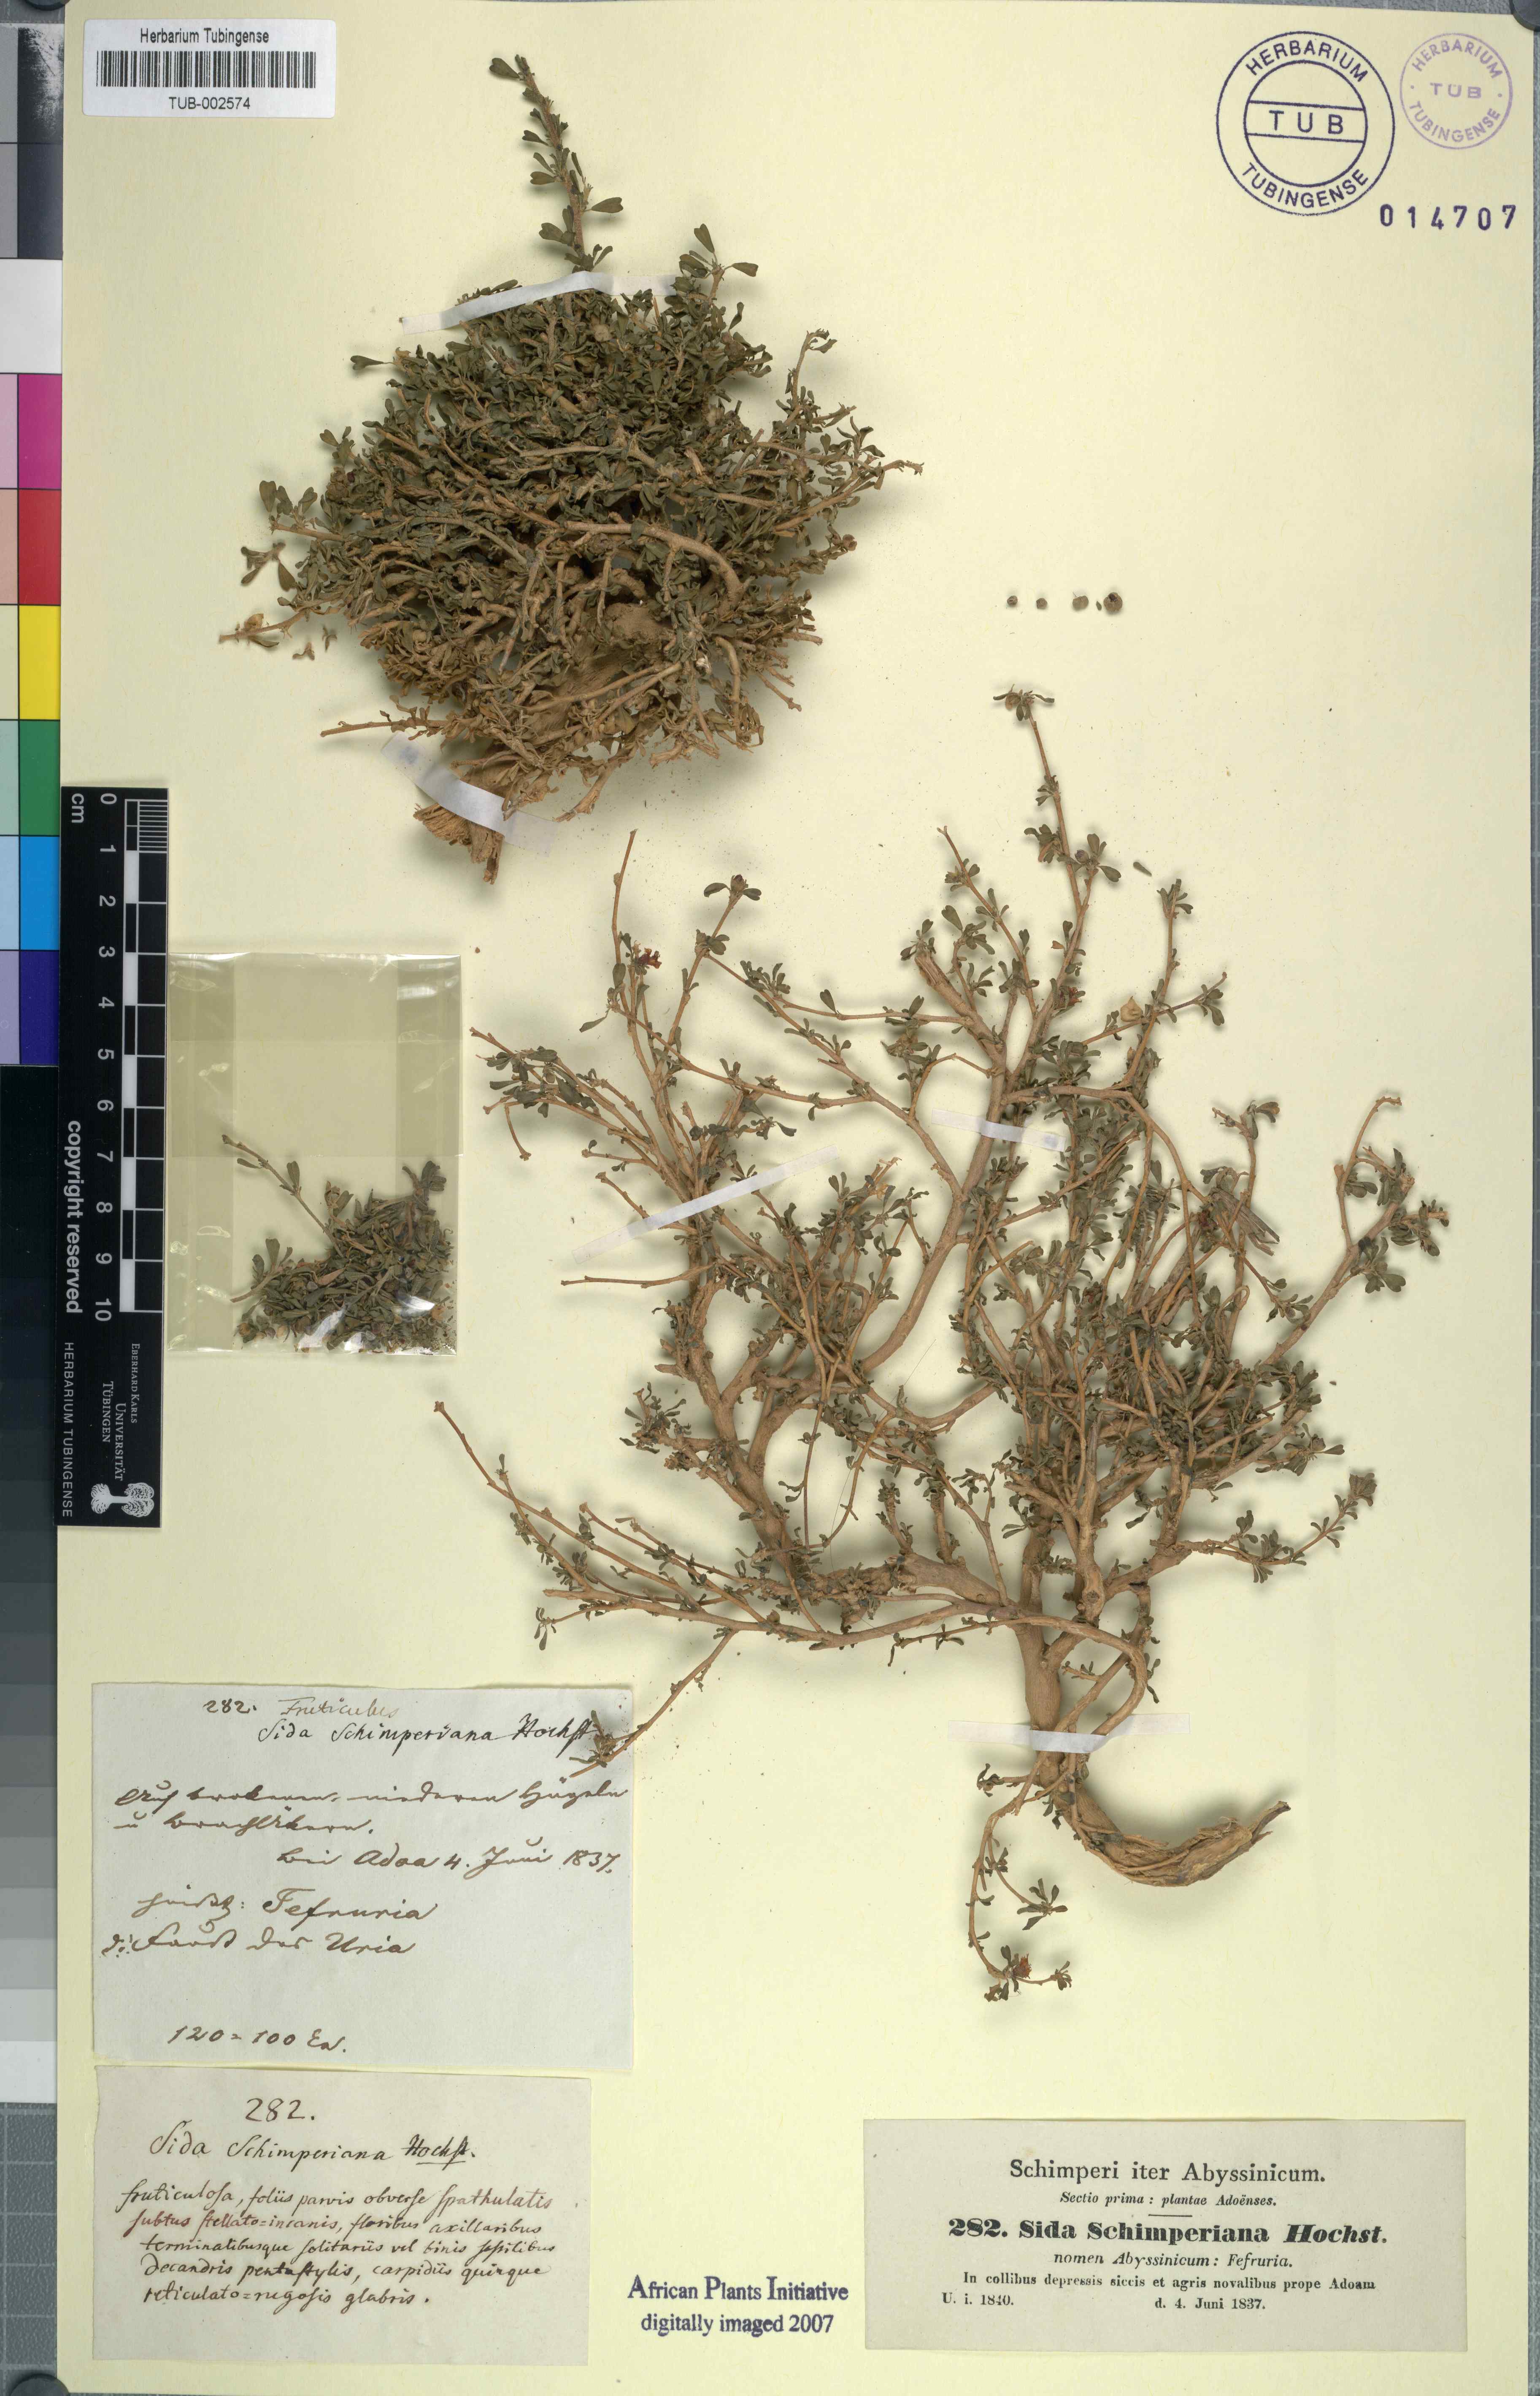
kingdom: Plantae
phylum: Tracheophyta
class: Magnoliopsida
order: Malvales
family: Malvaceae
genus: Sida
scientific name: Sida schimperiana
